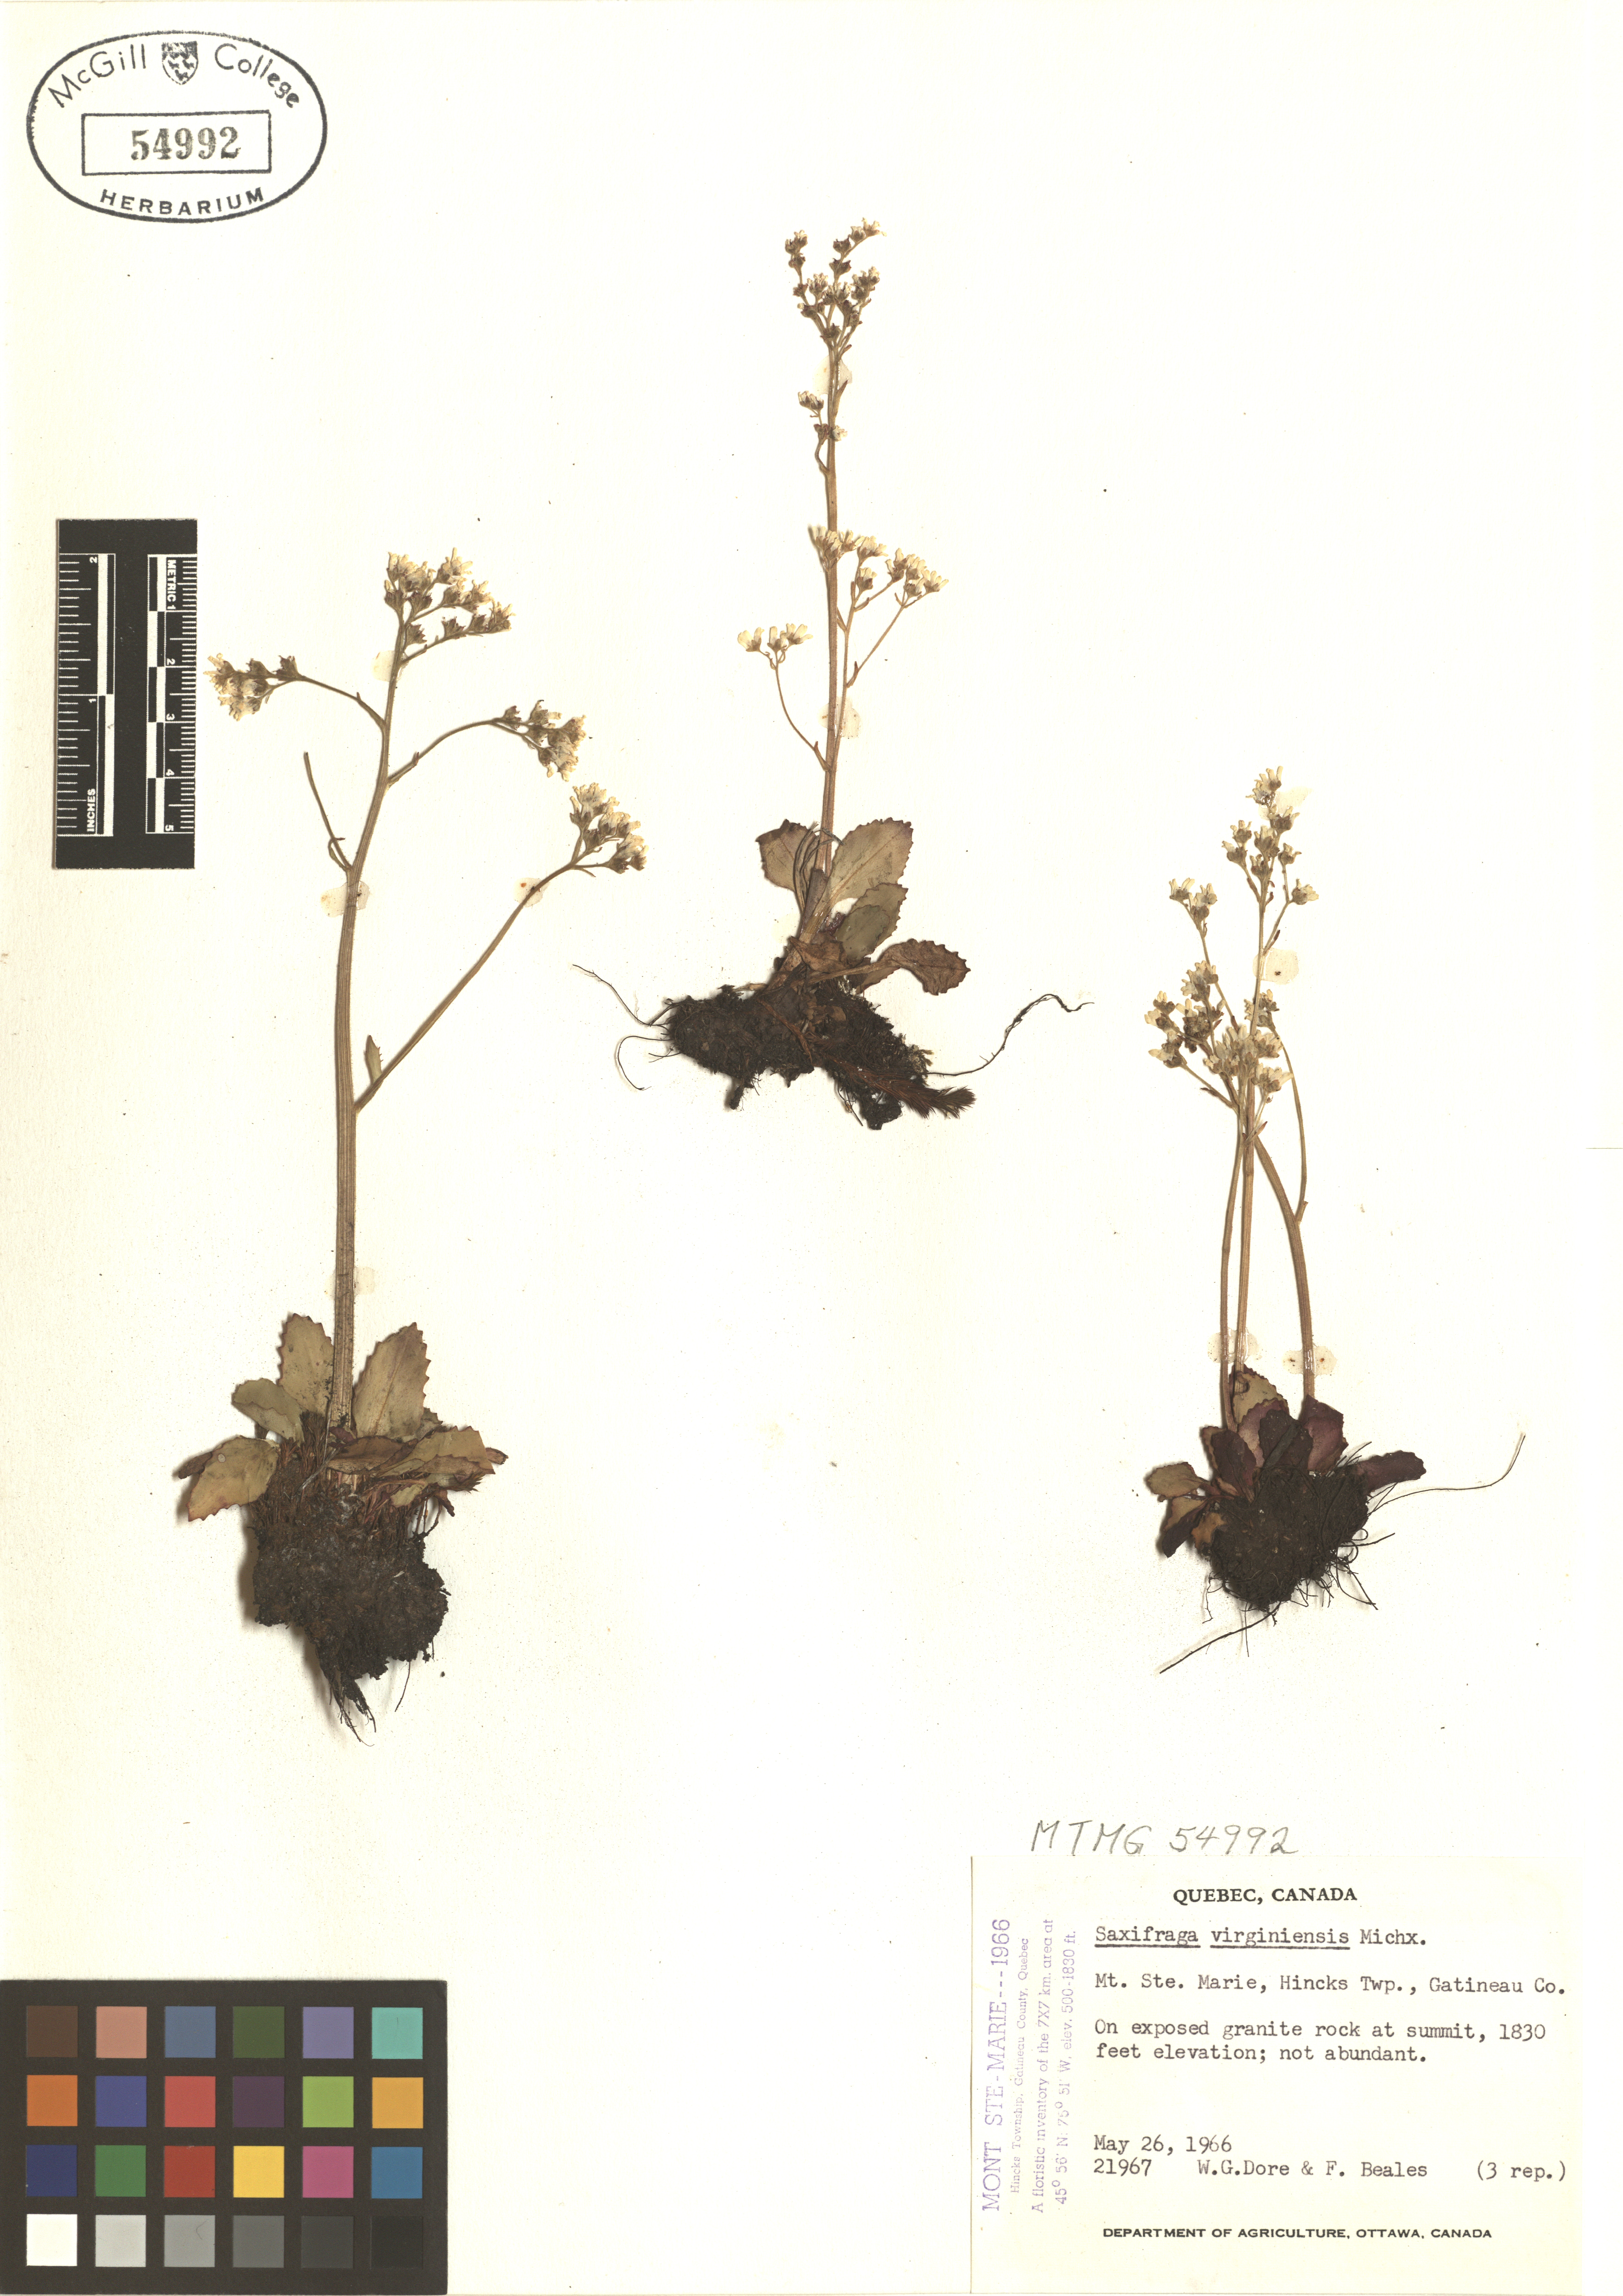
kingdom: Plantae
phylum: Tracheophyta
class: Magnoliopsida
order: Saxifragales
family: Saxifragaceae
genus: Micranthes
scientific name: Micranthes virginiensis
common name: Early saxifrage
